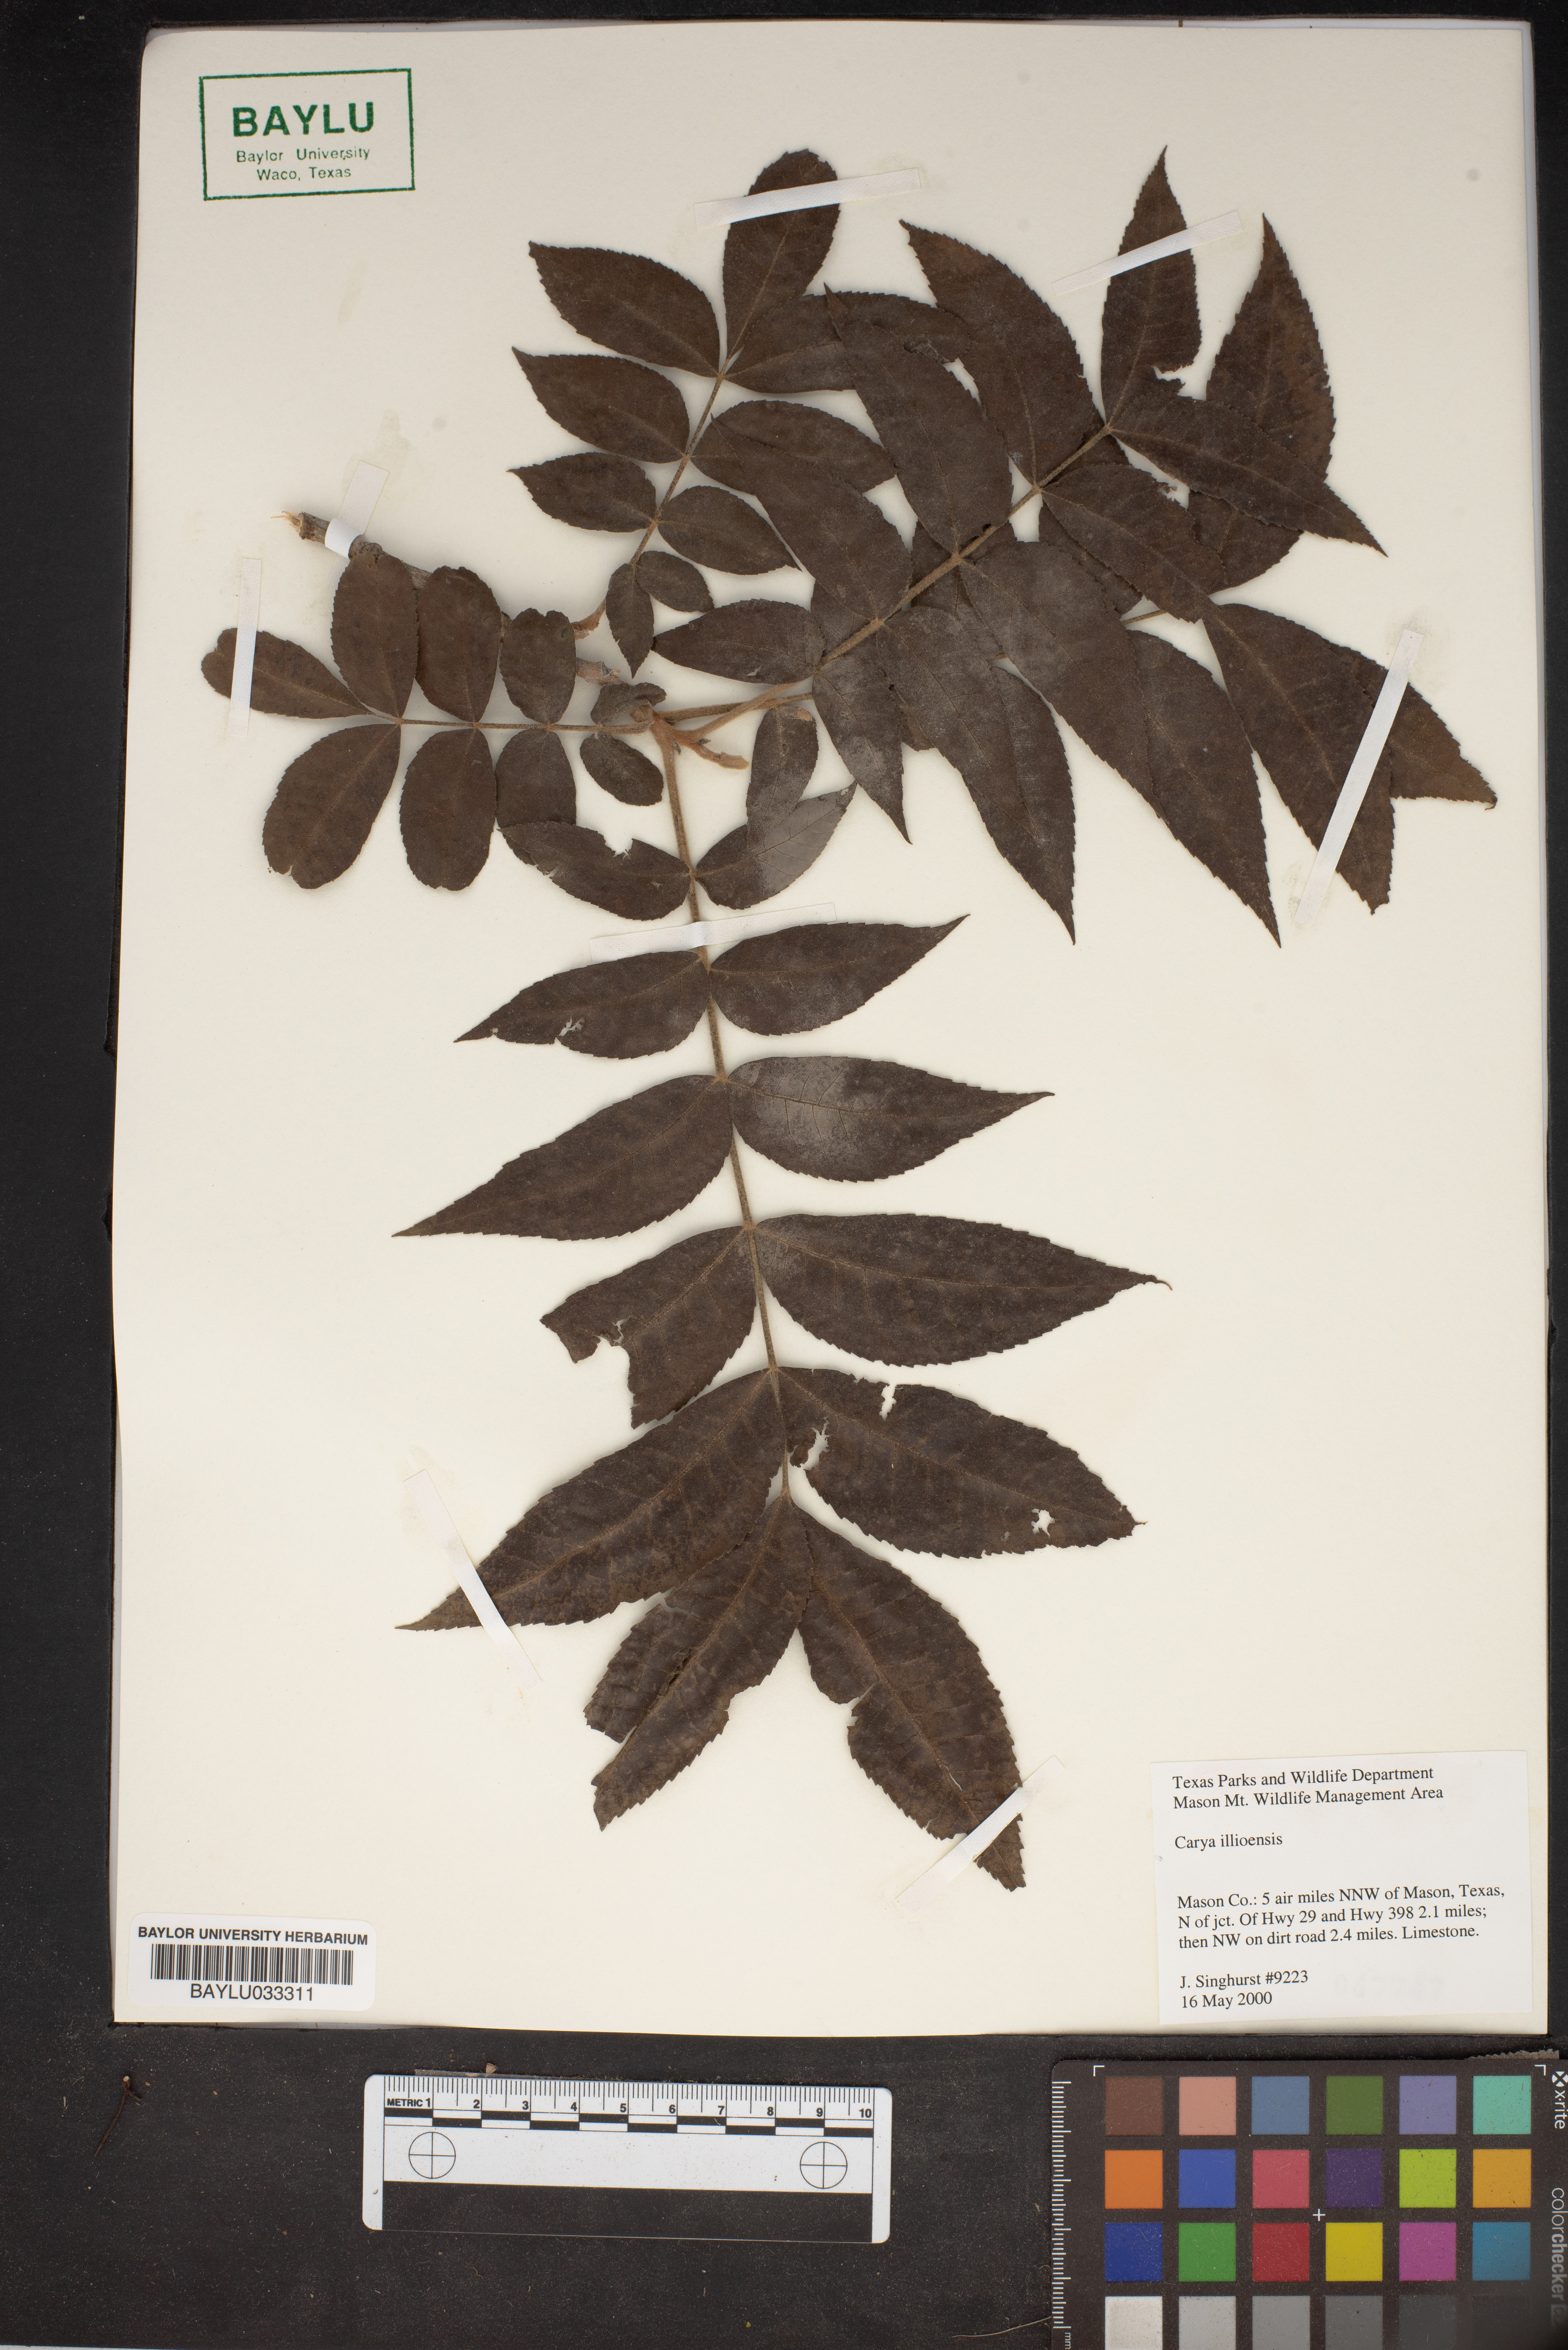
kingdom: Plantae
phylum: Tracheophyta
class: Magnoliopsida
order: Fagales
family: Juglandaceae
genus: Carya
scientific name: Carya
